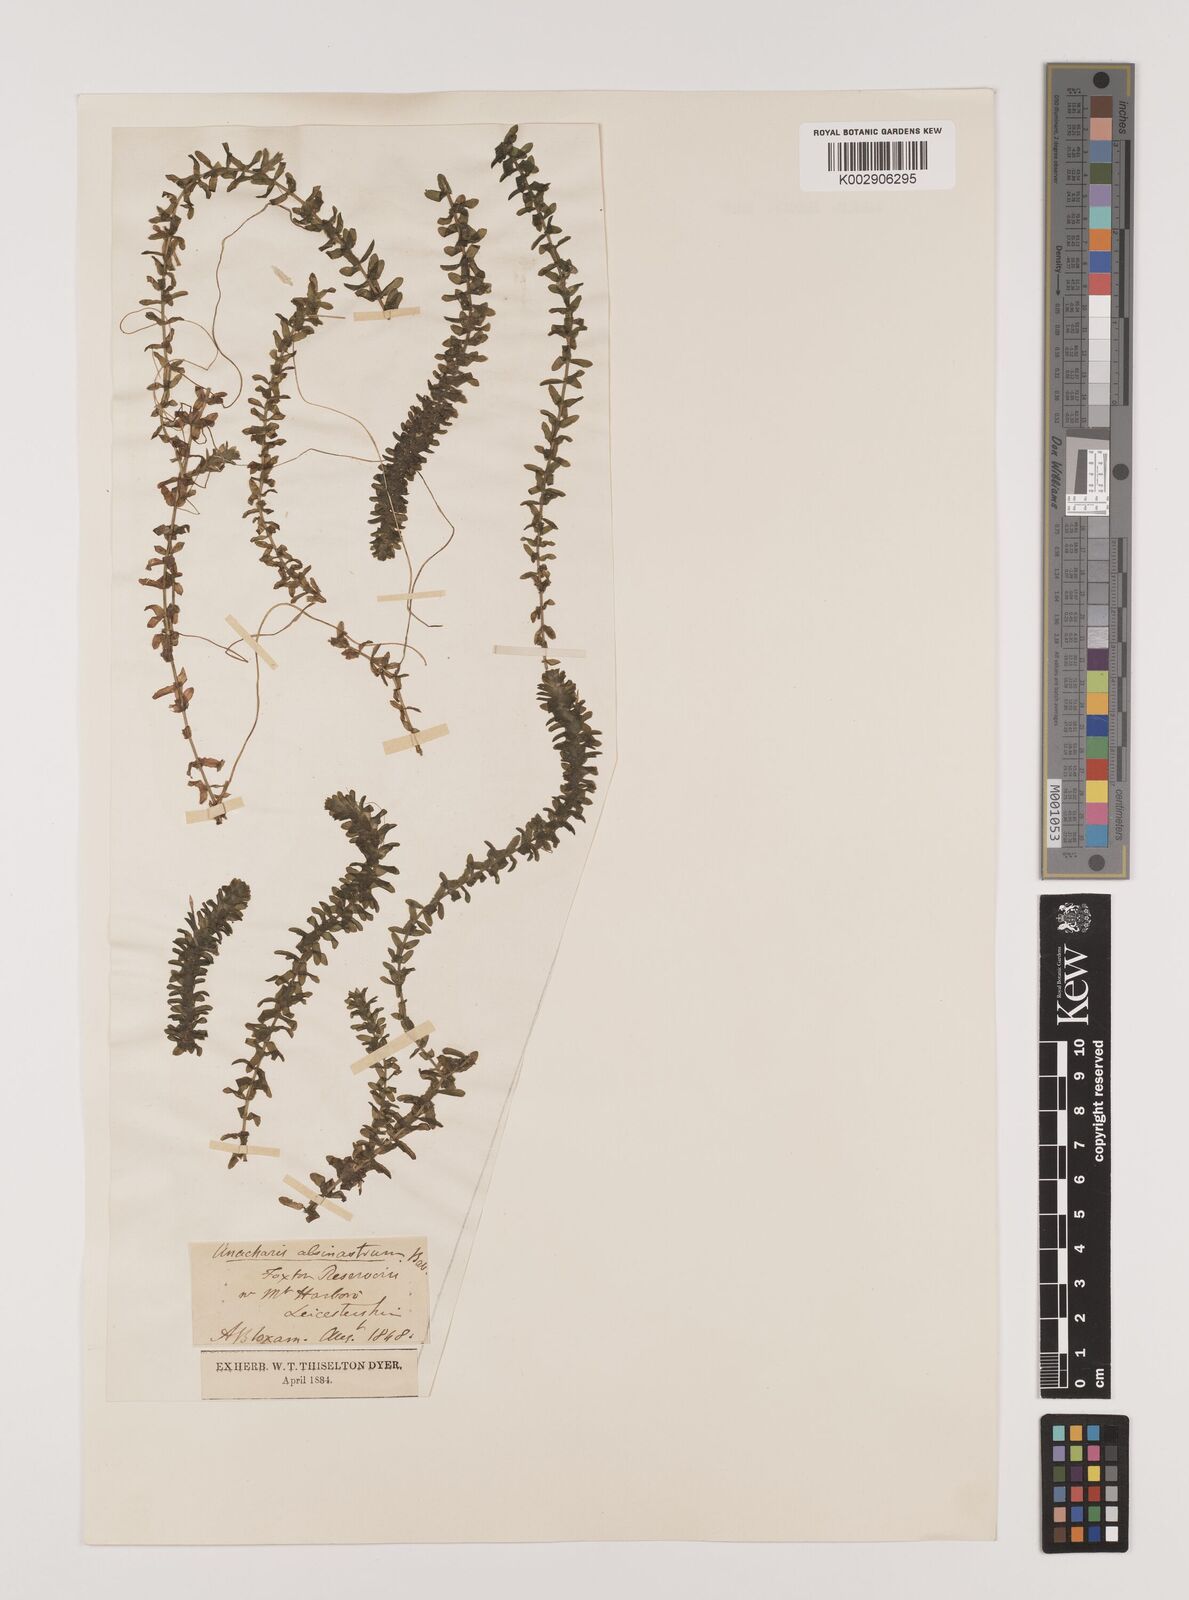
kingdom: Plantae
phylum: Tracheophyta
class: Liliopsida
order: Alismatales
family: Hydrocharitaceae
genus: Elodea
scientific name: Elodea canadensis
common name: Canadian waterweed
